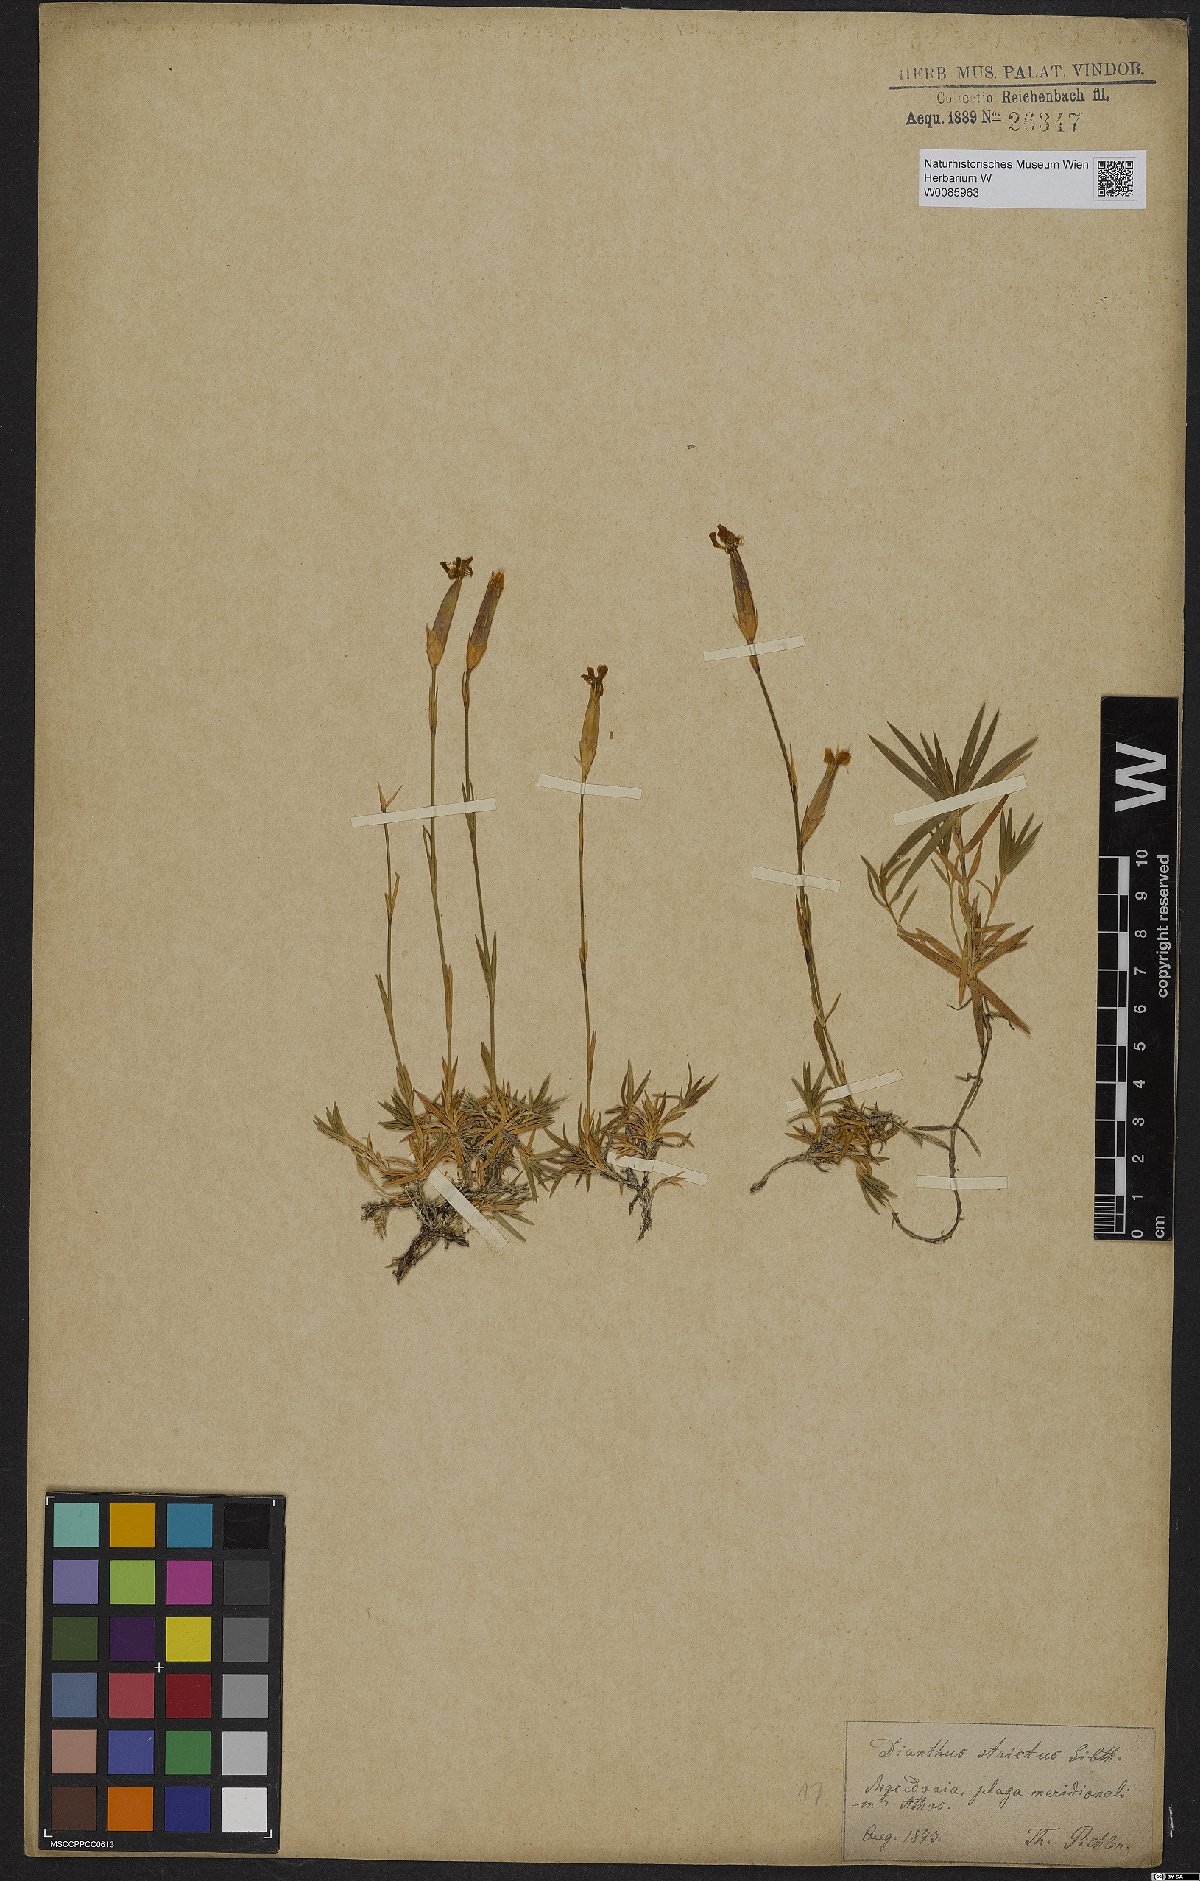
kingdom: Plantae
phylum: Tracheophyta
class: Magnoliopsida
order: Caryophyllales
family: Caryophyllaceae
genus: Dianthus
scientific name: Dianthus petraeus
